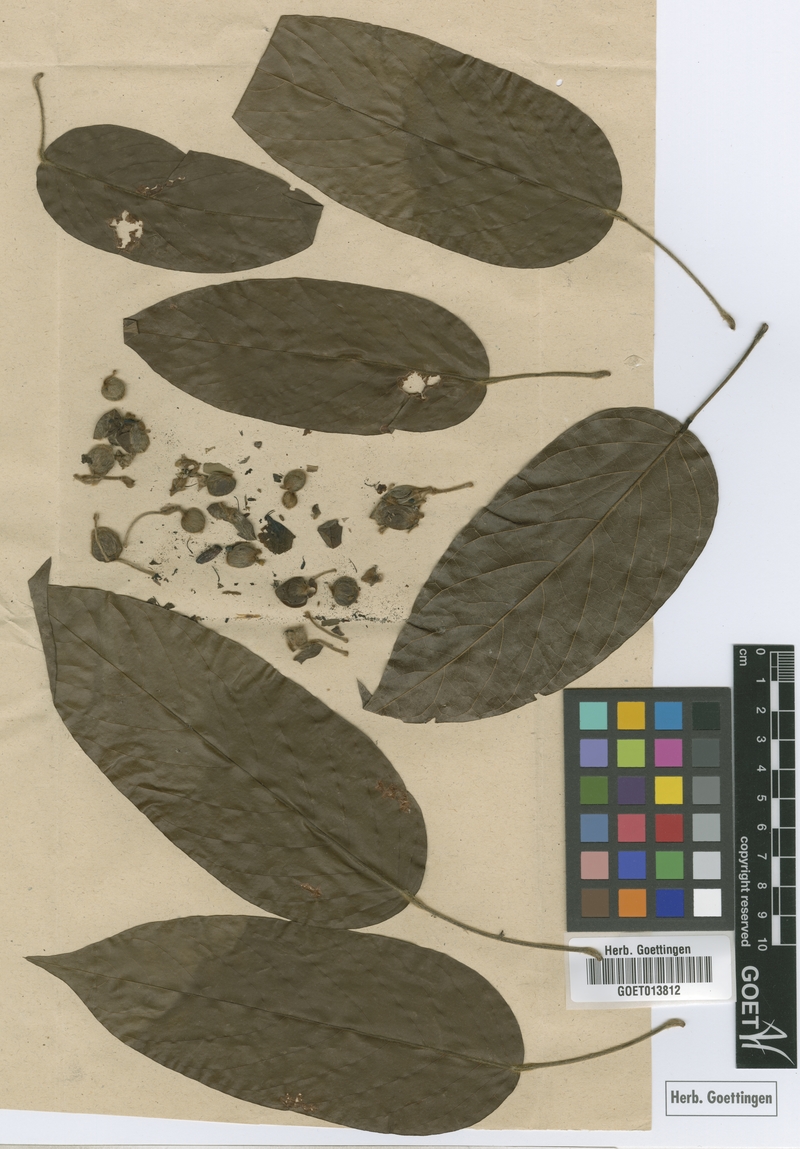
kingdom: Plantae
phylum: Tracheophyta
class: Magnoliopsida
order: Solanales
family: Convolvulaceae
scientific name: Convolvulaceae
